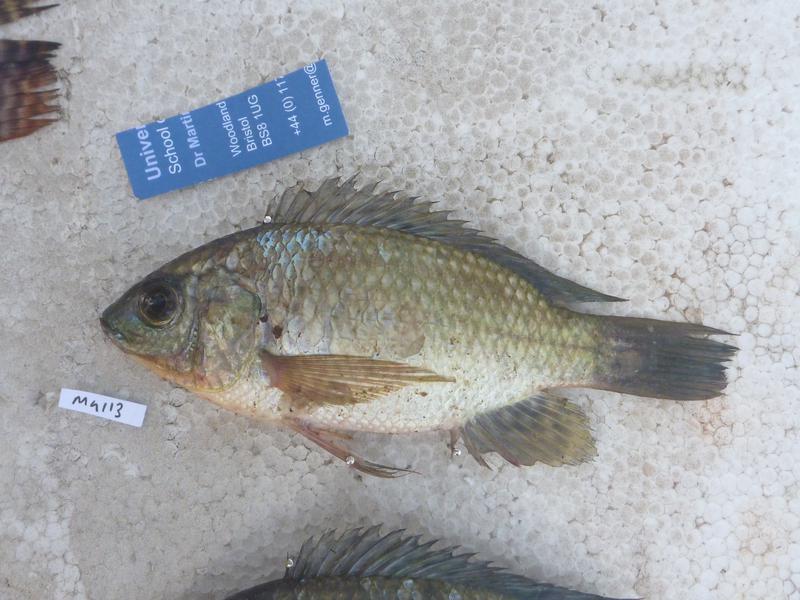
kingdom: Animalia
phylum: Chordata
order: Perciformes
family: Cichlidae
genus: Oreochromis
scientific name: Oreochromis leucostictus
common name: Blue spotted tilapia
